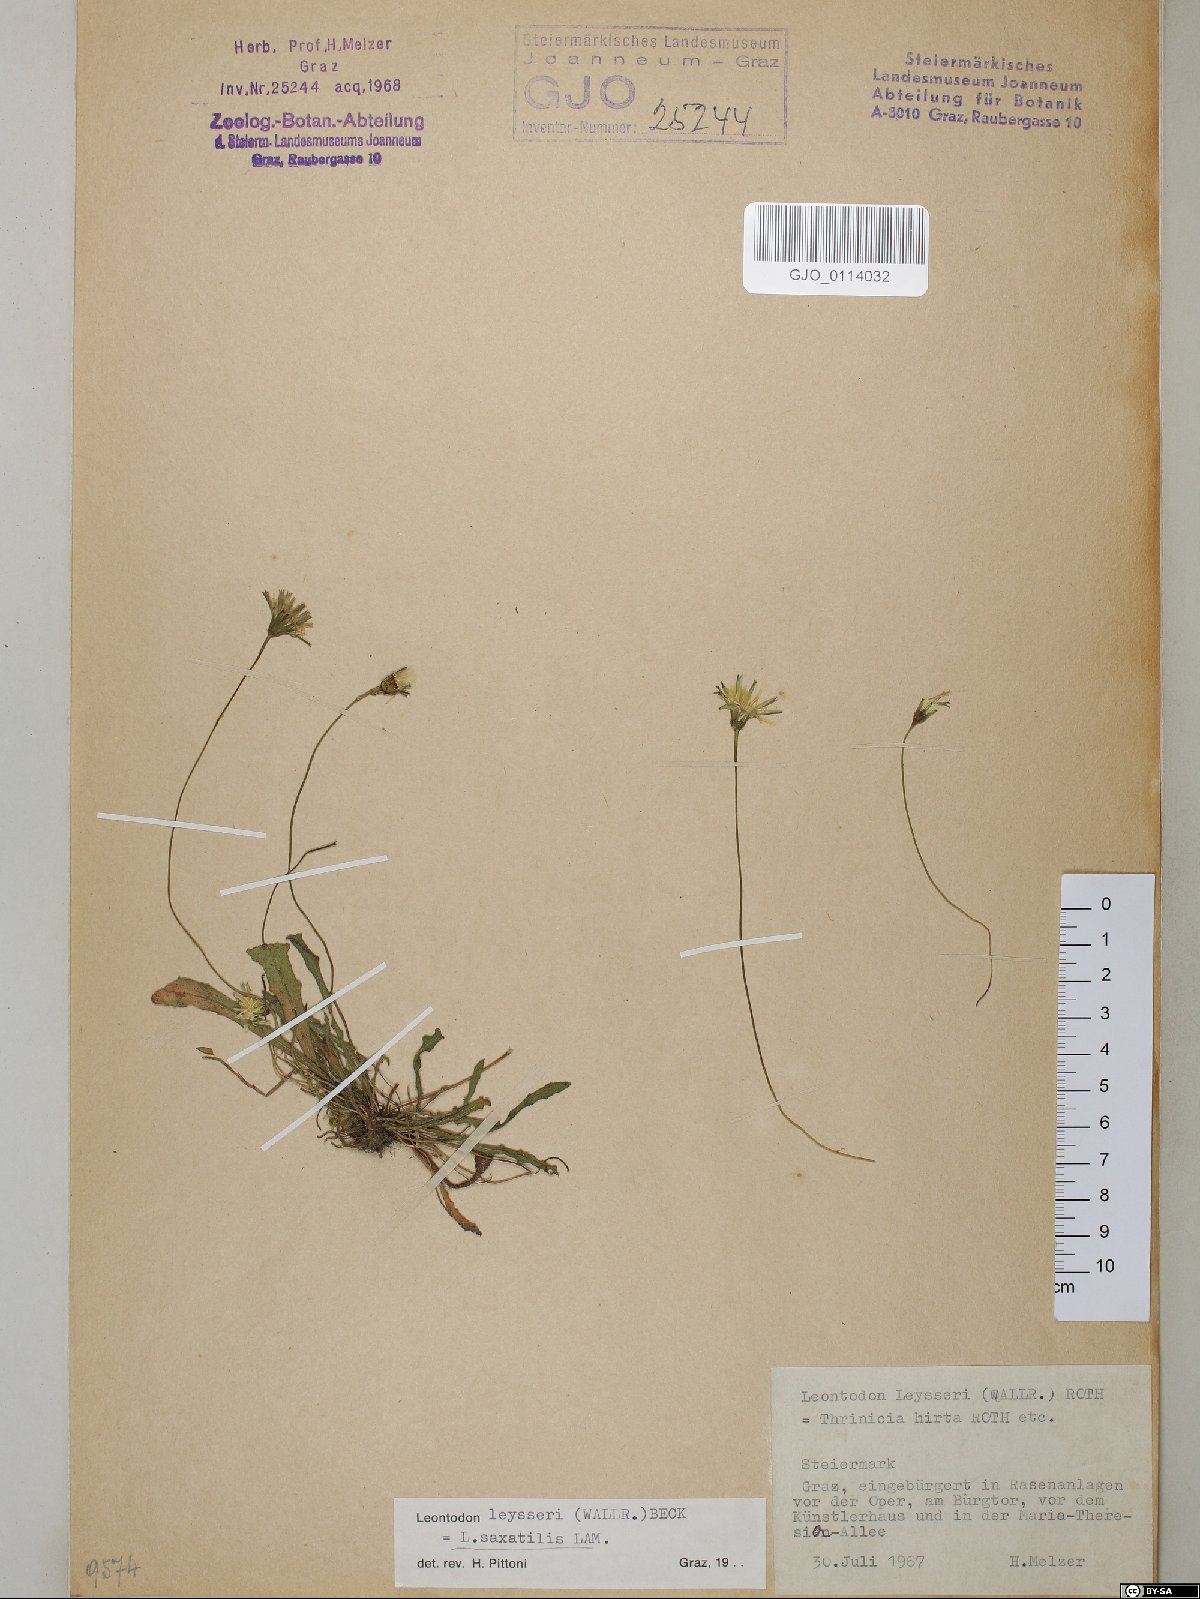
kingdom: Plantae
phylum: Tracheophyta
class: Magnoliopsida
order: Asterales
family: Asteraceae
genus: Thrincia
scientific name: Thrincia saxatilis
